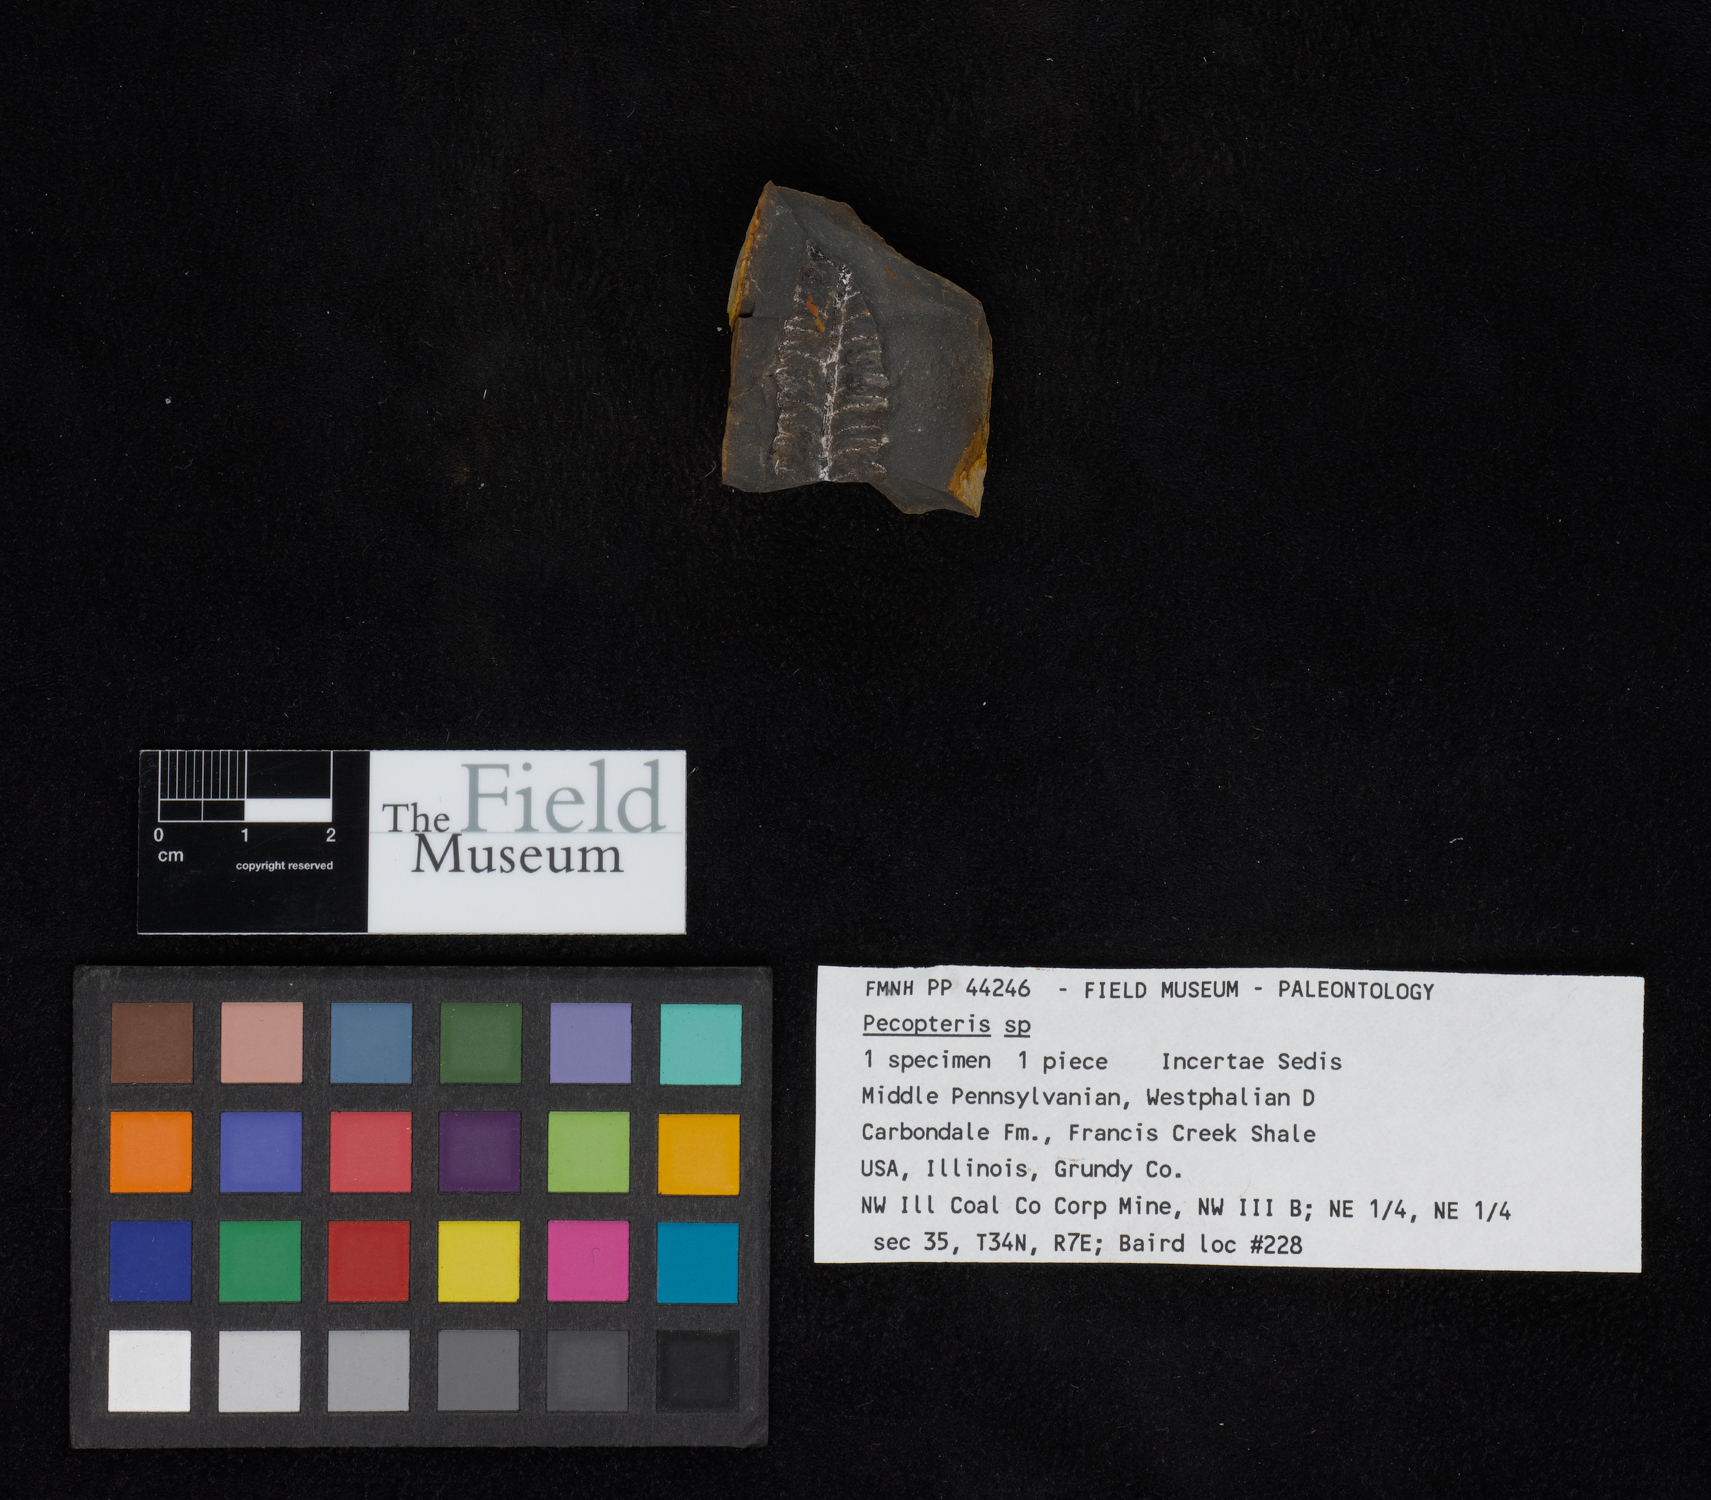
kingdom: Plantae
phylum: Tracheophyta
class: Polypodiopsida
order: Marattiales
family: Asterothecaceae
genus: Pecopteris
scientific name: Pecopteris
